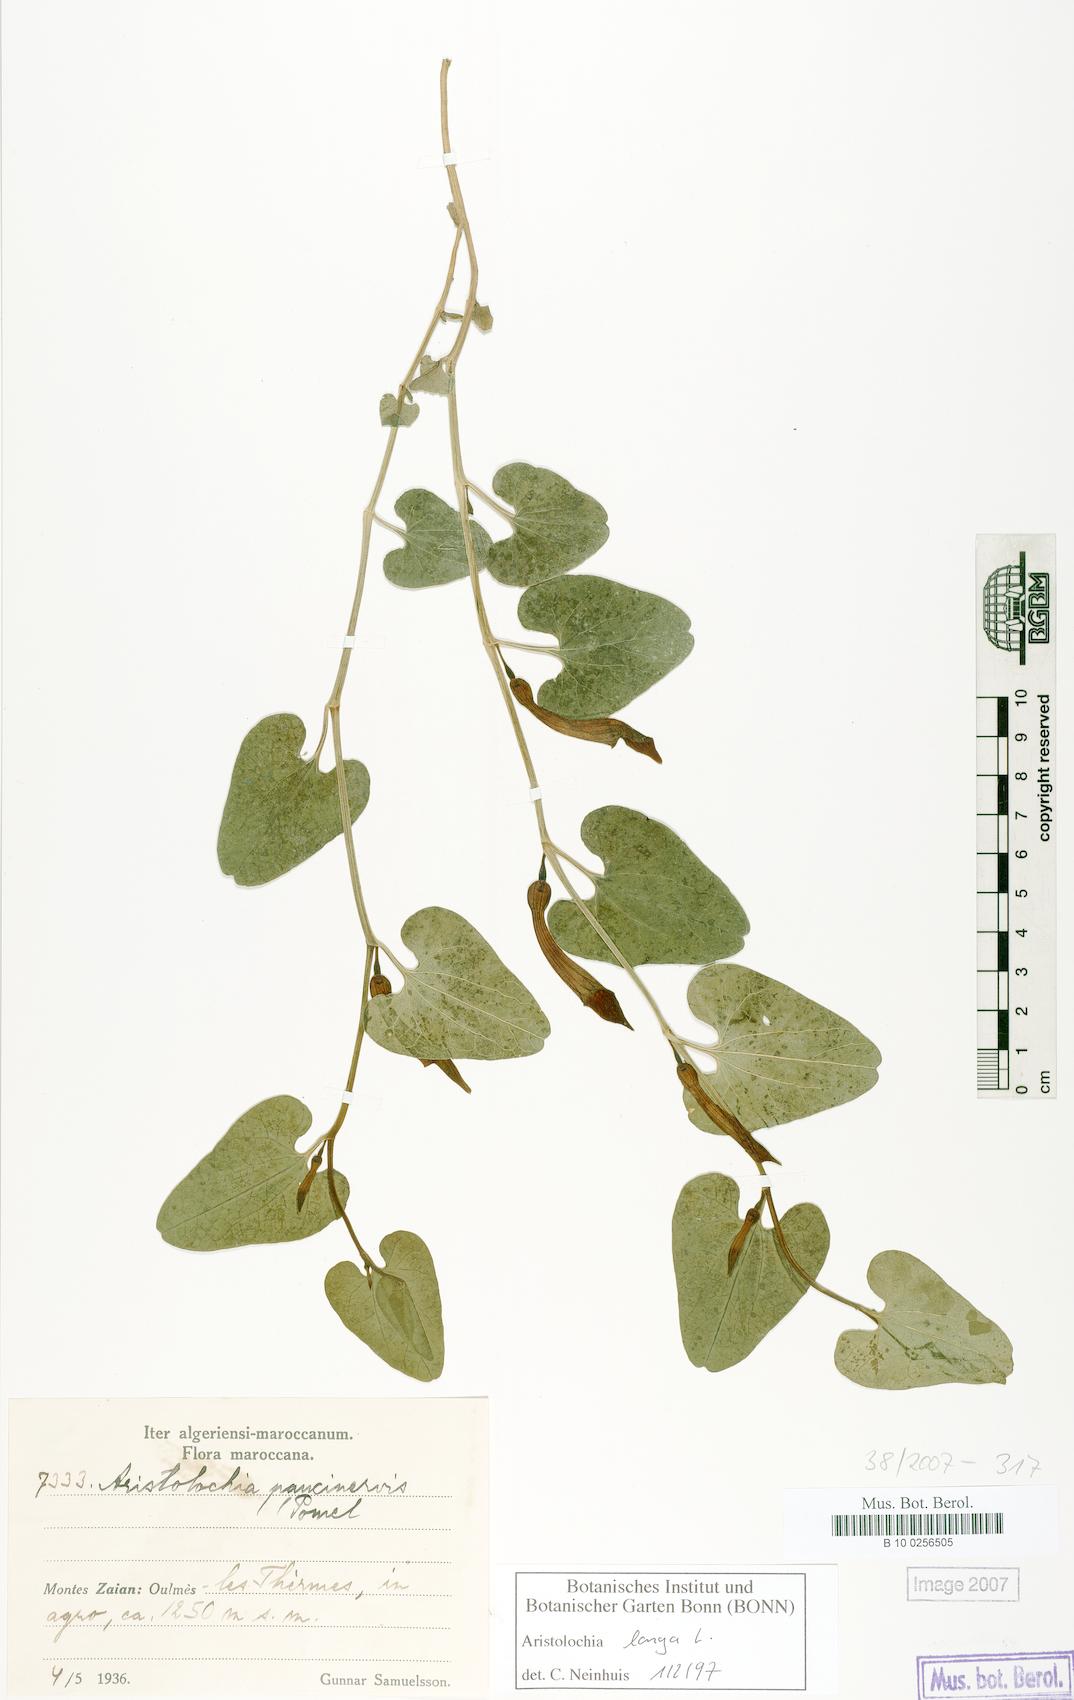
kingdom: Plantae
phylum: Tracheophyta
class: Magnoliopsida
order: Piperales
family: Aristolochiaceae
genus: Aristolochia
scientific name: Aristolochia fontanesii
